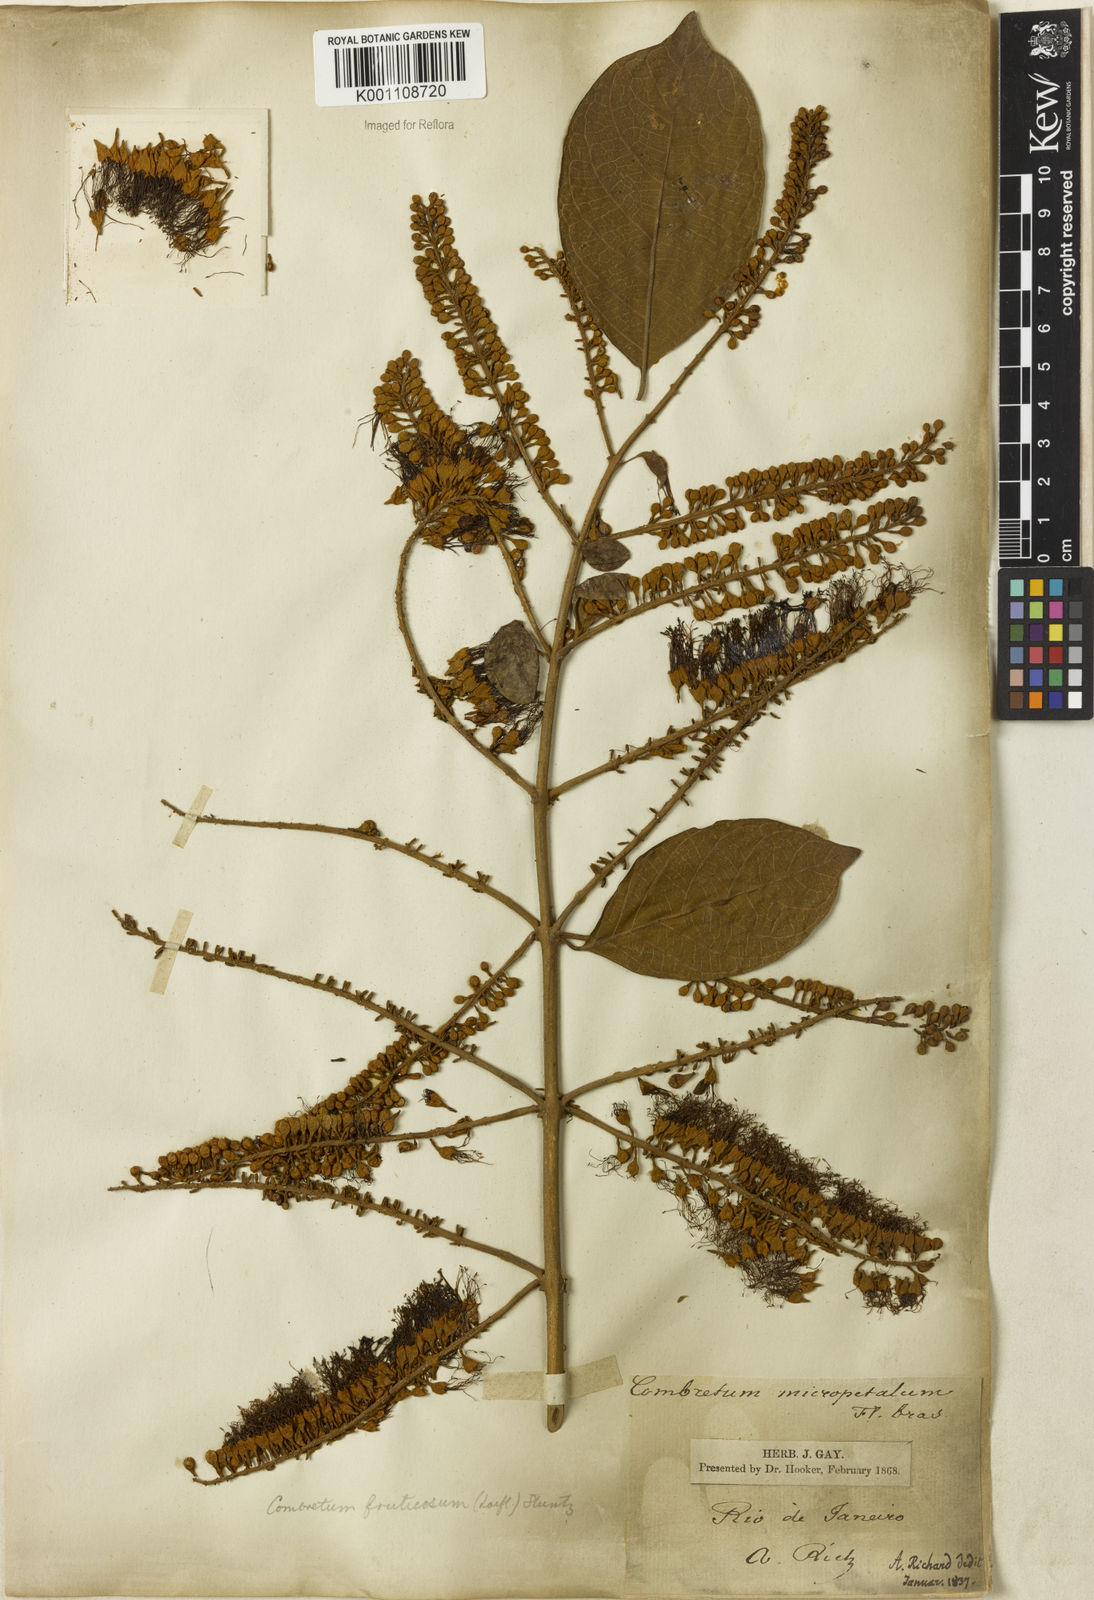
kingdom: Plantae
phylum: Tracheophyta
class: Magnoliopsida
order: Myrtales
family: Combretaceae
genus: Combretum
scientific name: Combretum fruticosum
